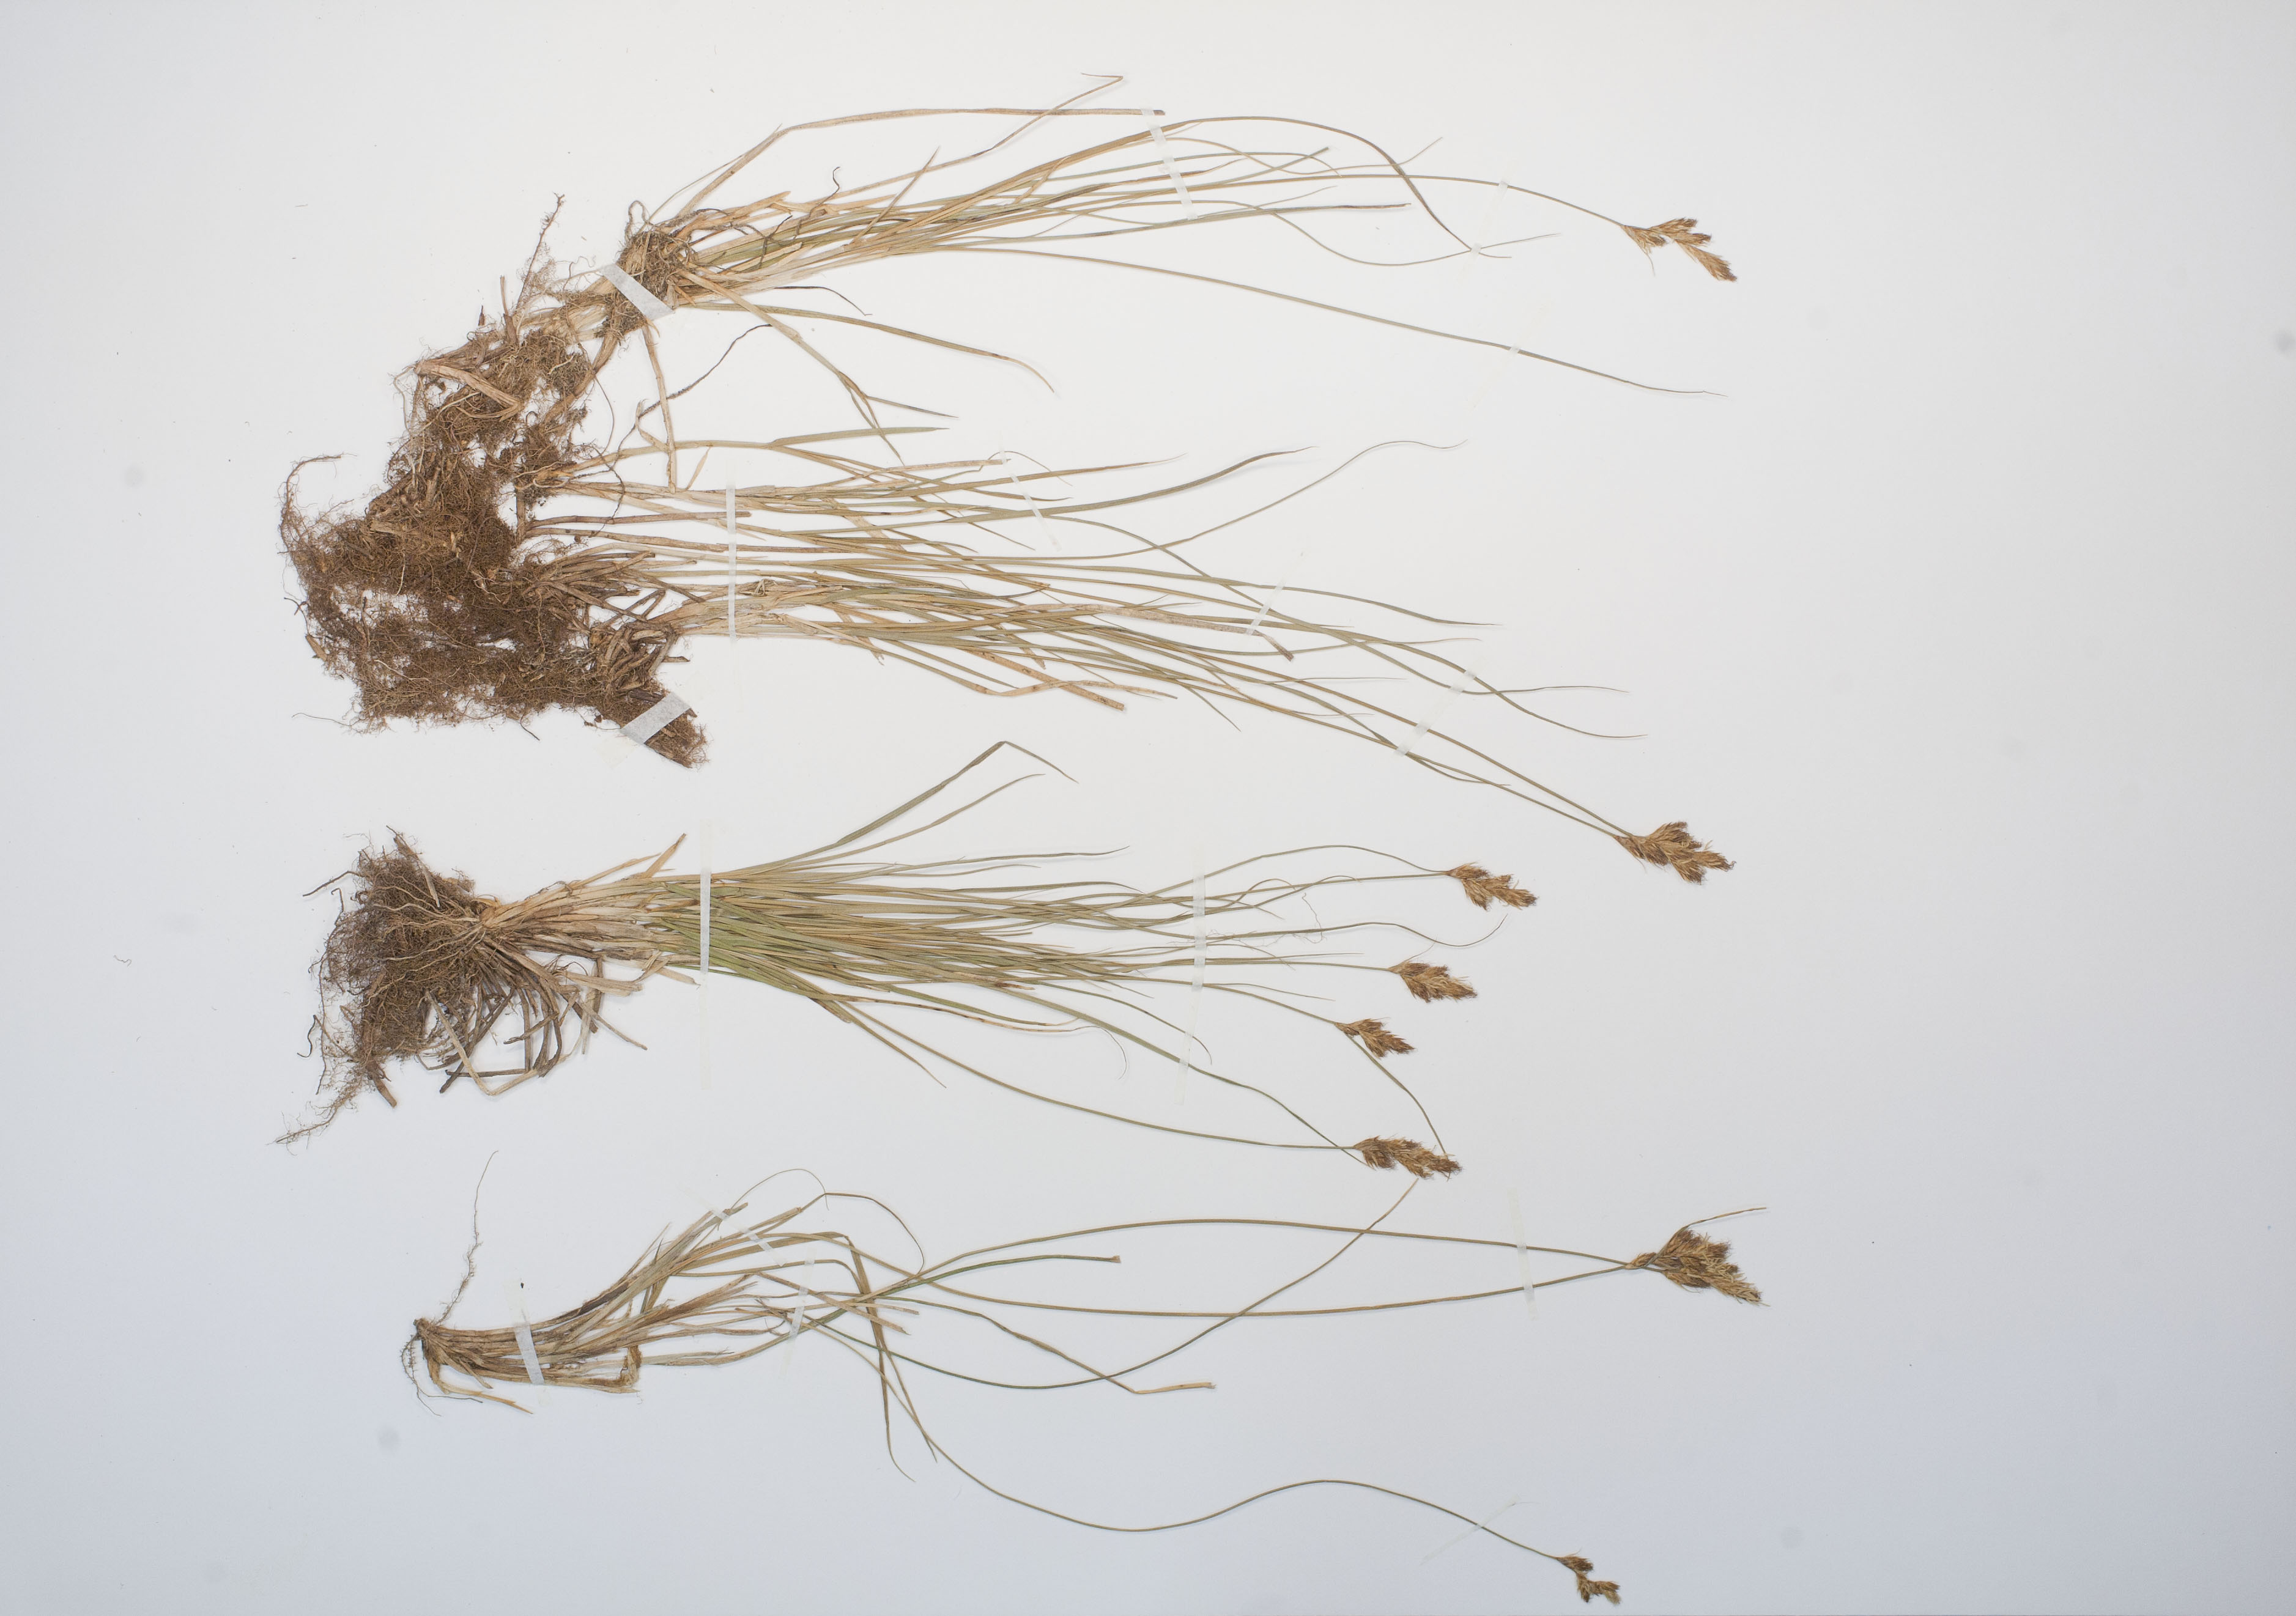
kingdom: Plantae
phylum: Tracheophyta
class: Liliopsida
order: Poales
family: Cyperaceae
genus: Carex
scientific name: Carex praecox
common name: Early sedge
